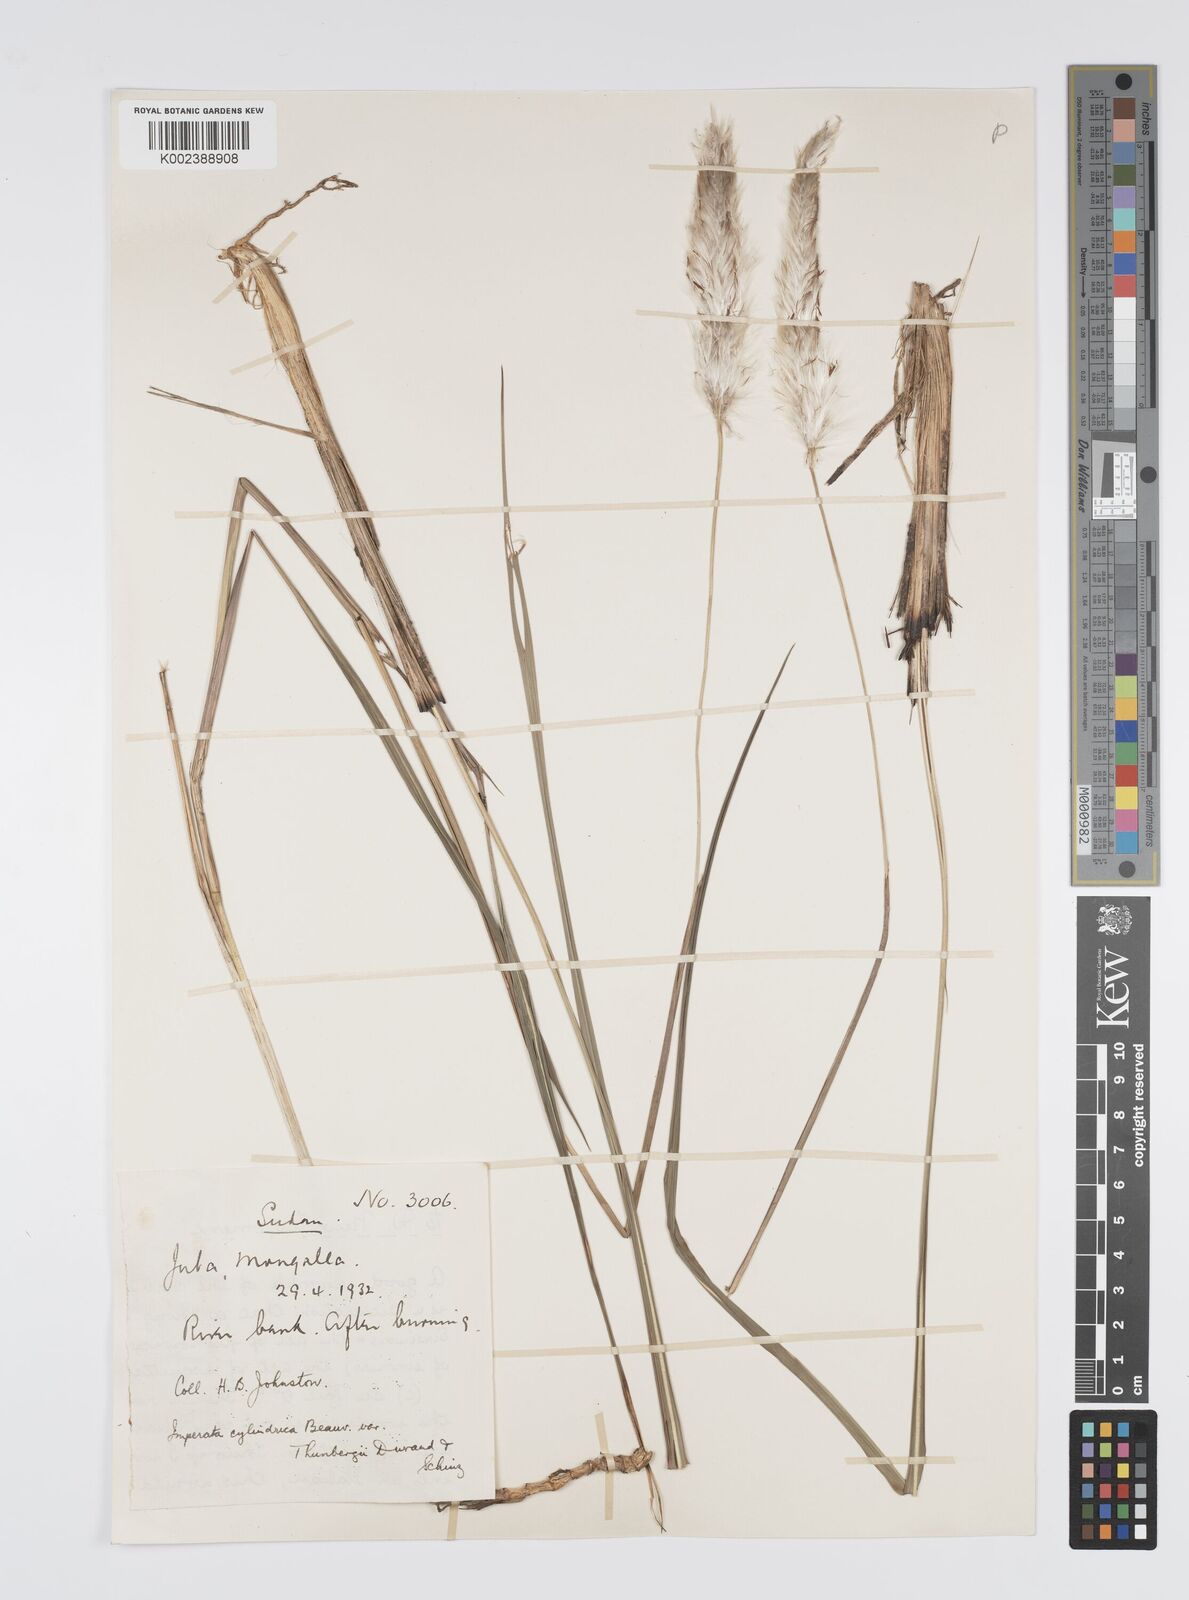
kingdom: Plantae
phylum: Tracheophyta
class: Liliopsida
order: Poales
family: Poaceae
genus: Imperata
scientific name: Imperata cylindrica
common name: Cogongrass
